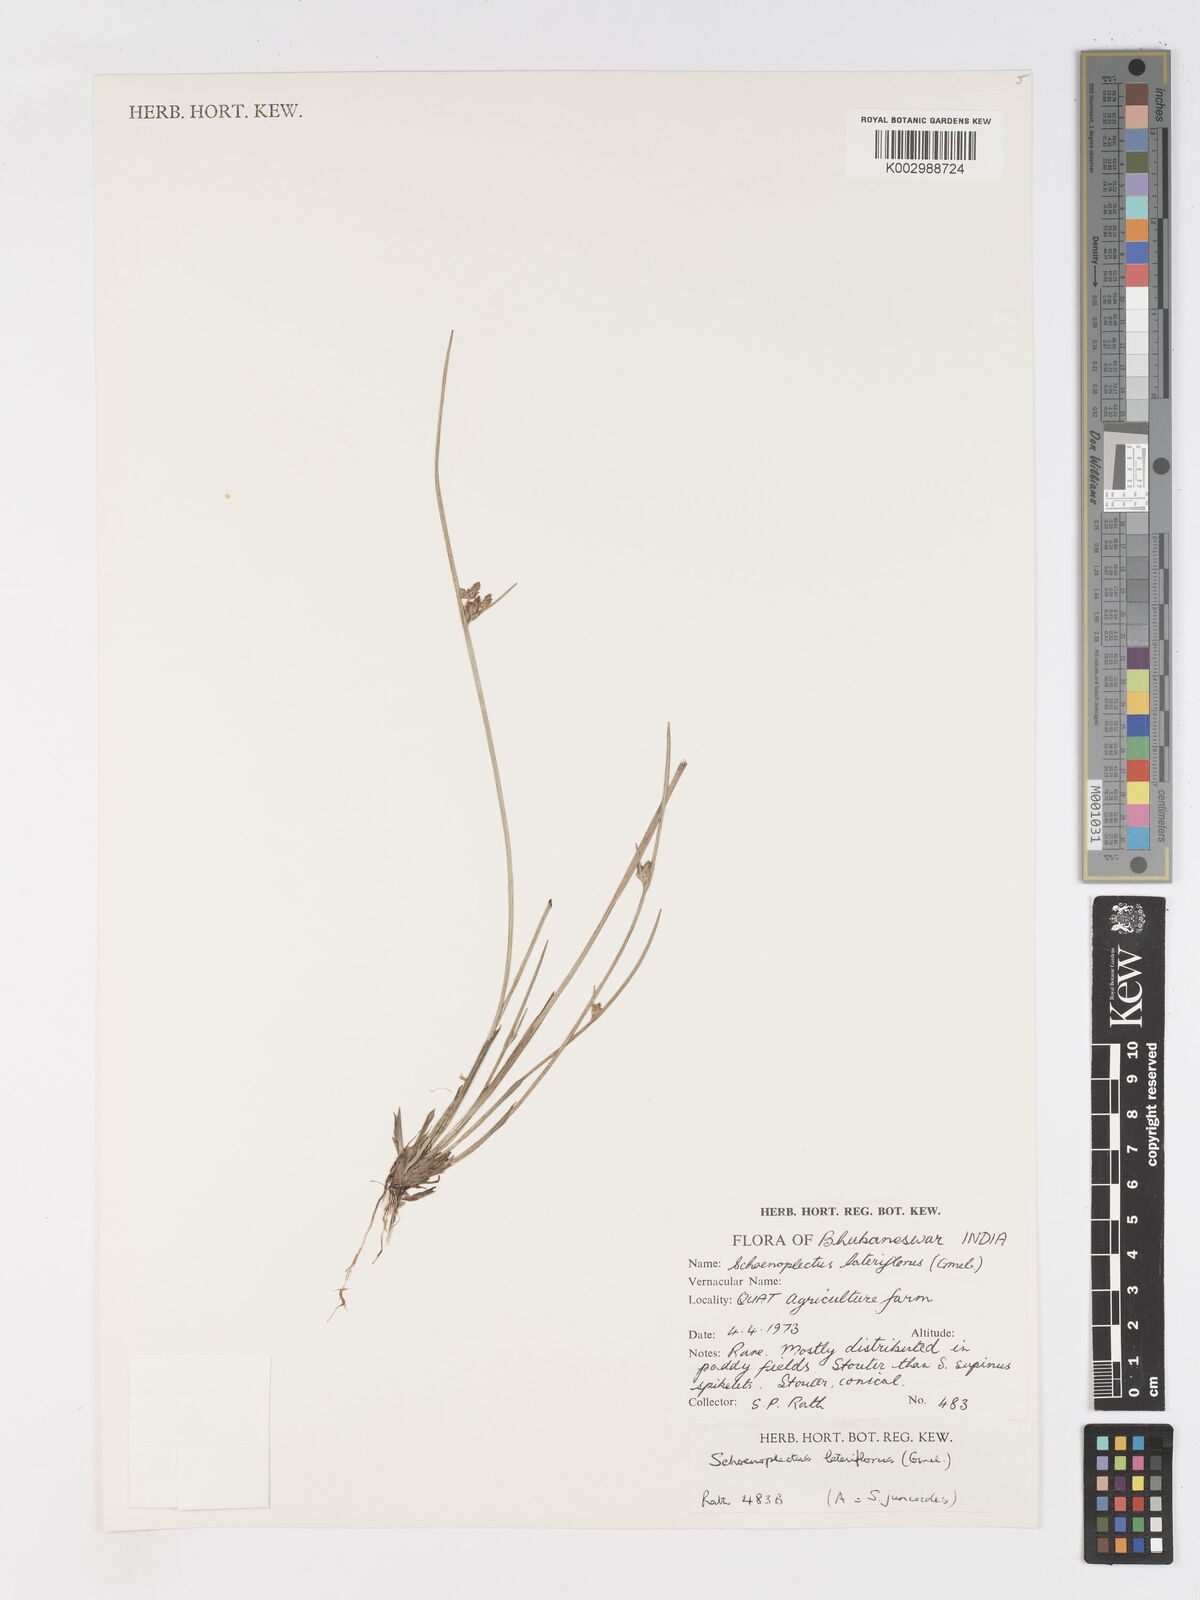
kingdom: Plantae
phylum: Tracheophyta
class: Liliopsida
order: Poales
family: Cyperaceae
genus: Schoenoplectiella
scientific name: Schoenoplectiella lateriflora
